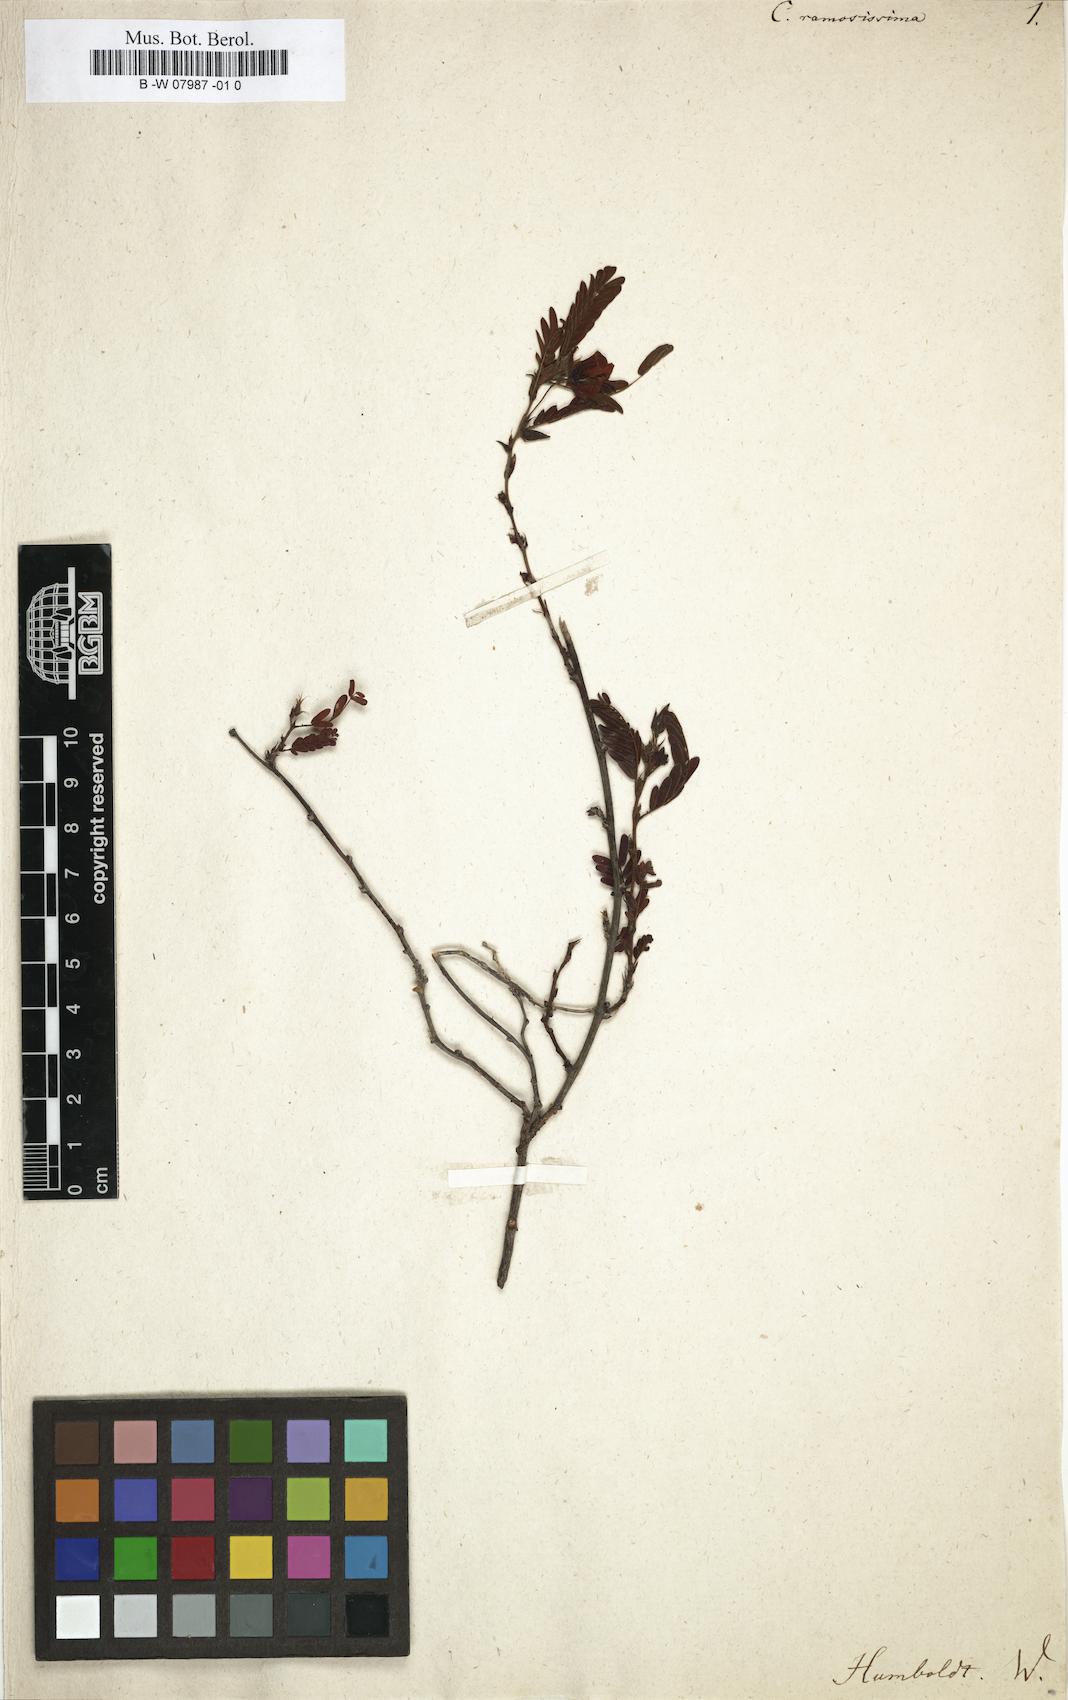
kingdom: Plantae
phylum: Tracheophyta
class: Magnoliopsida
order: Fabales
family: Fabaceae
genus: Chamaecrista
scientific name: Chamaecrista glandulosa
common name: Wild peas
